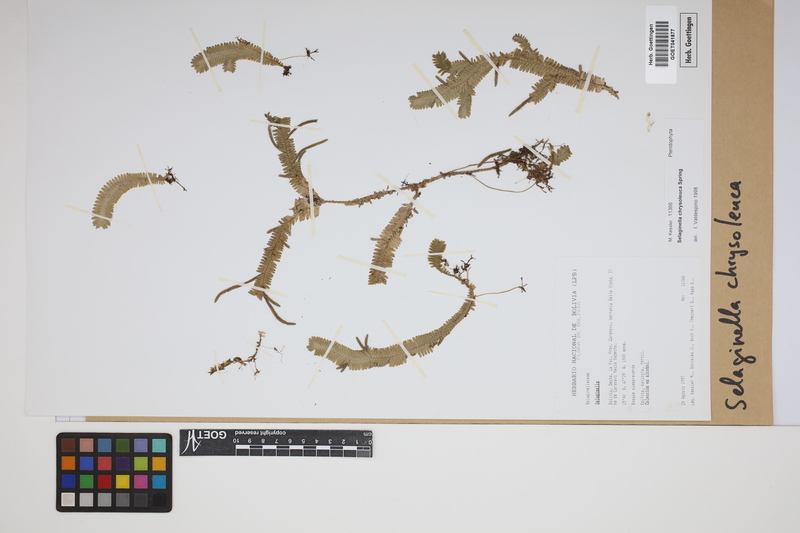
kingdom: Plantae
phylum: Tracheophyta
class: Lycopodiopsida
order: Selaginellales
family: Selaginellaceae
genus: Selaginella
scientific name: Selaginella chrysoleuca
